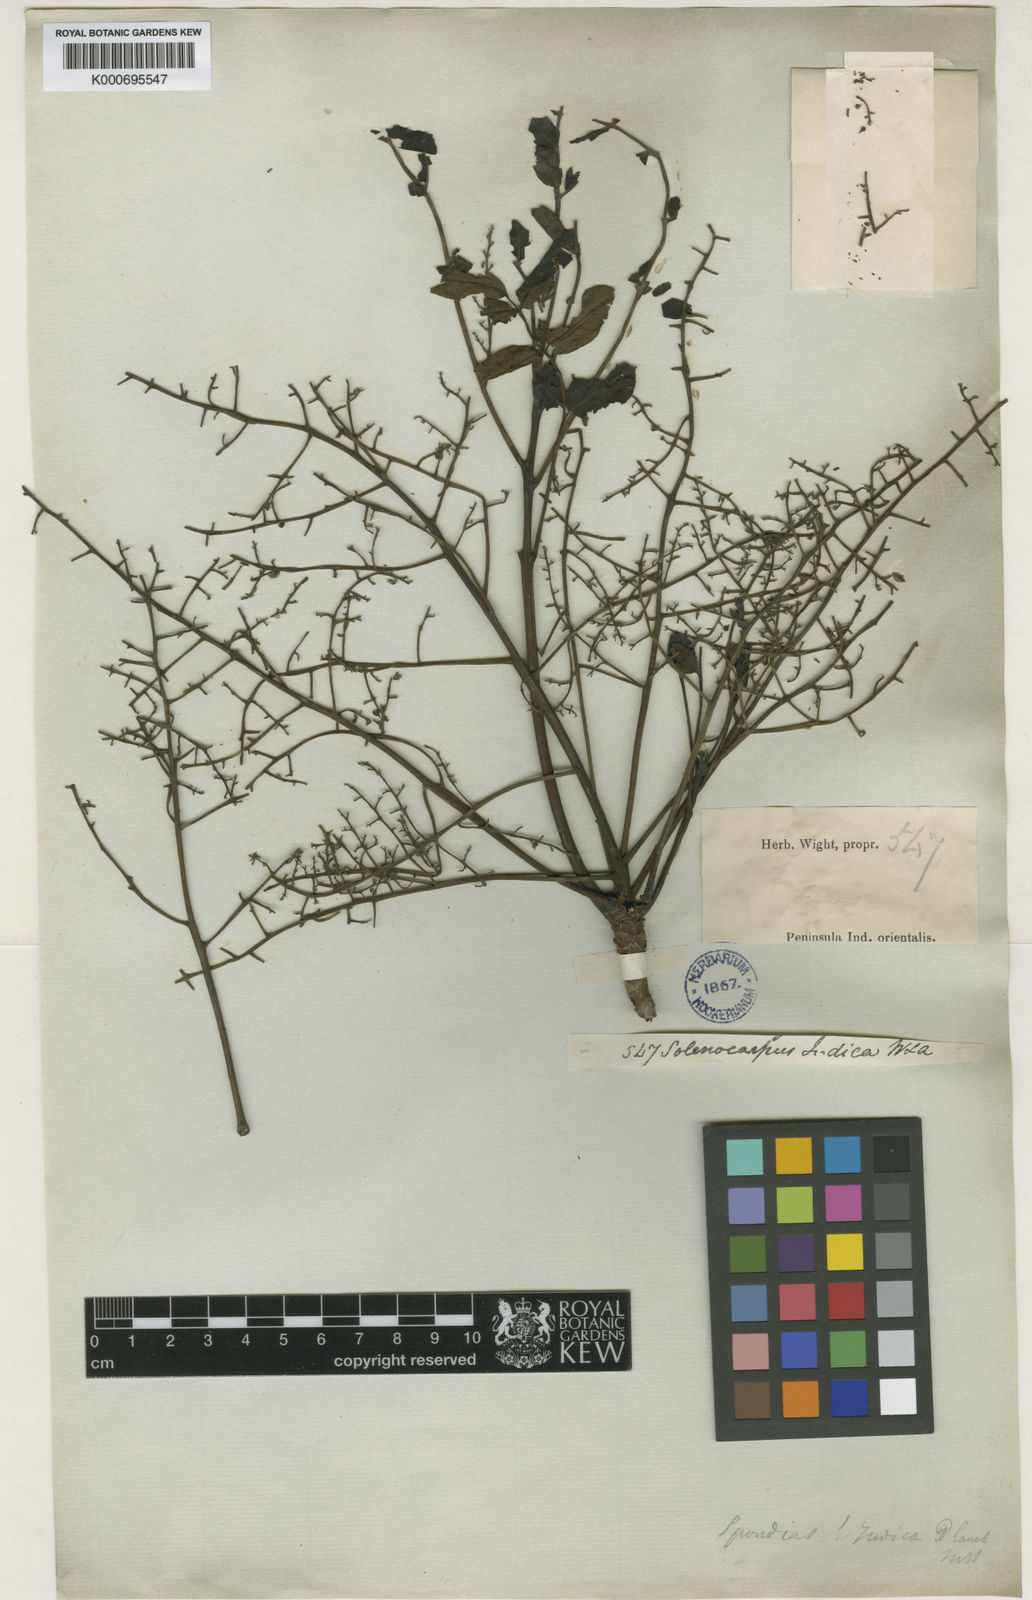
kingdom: Plantae
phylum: Tracheophyta
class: Magnoliopsida
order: Sapindales
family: Anacardiaceae
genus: Spondias
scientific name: Spondias indica
